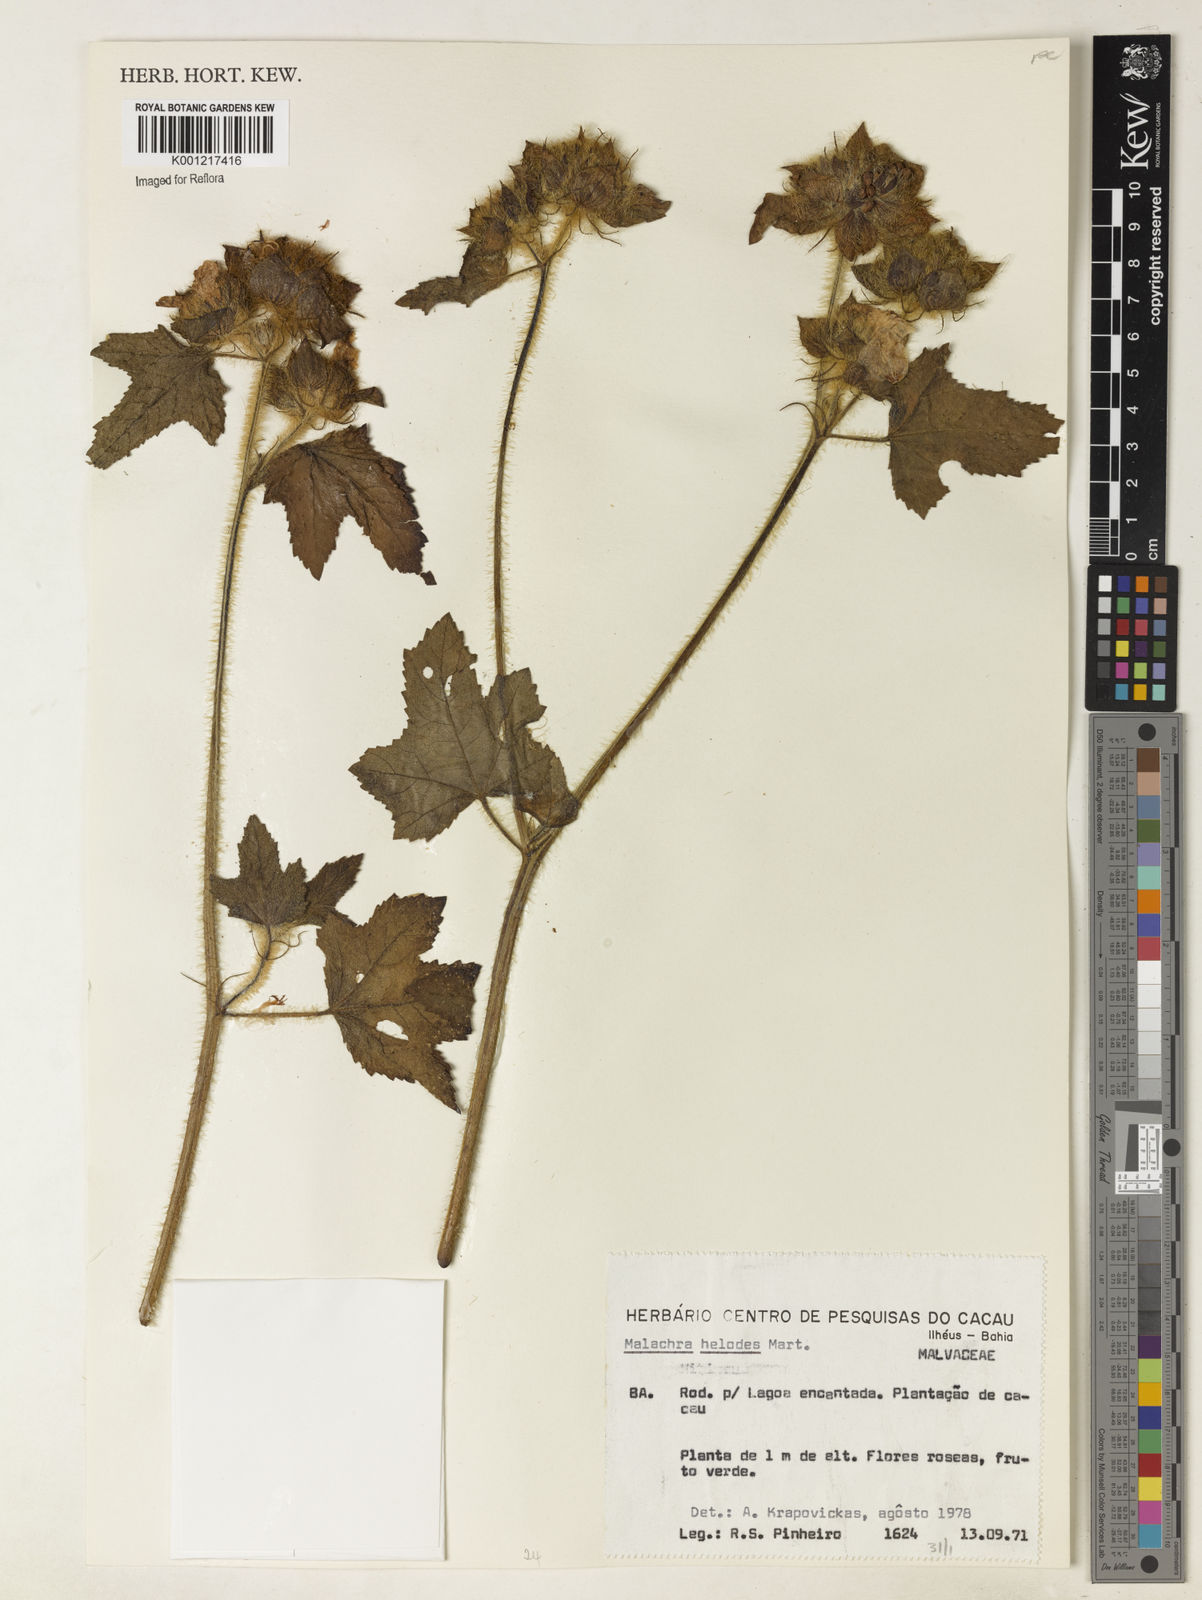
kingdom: Plantae
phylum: Tracheophyta
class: Magnoliopsida
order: Malvales
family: Malvaceae
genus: Malachra
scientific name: Malachra helodes
